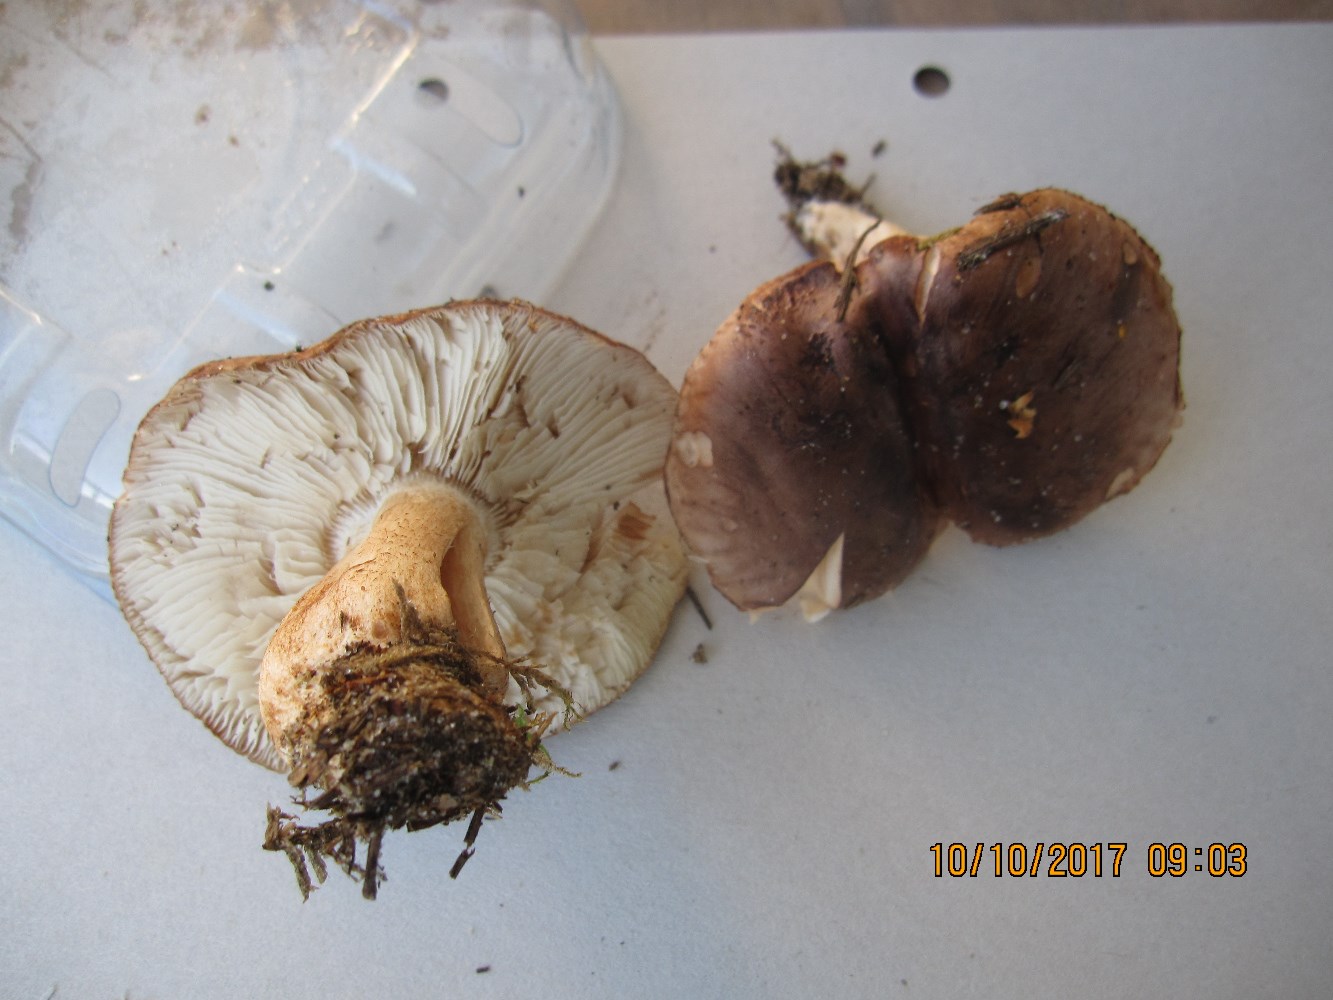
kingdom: Fungi
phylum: Basidiomycota
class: Agaricomycetes
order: Agaricales
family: Tricholomataceae
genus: Tricholoma
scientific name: Tricholoma stans
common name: stolt ridderhat
